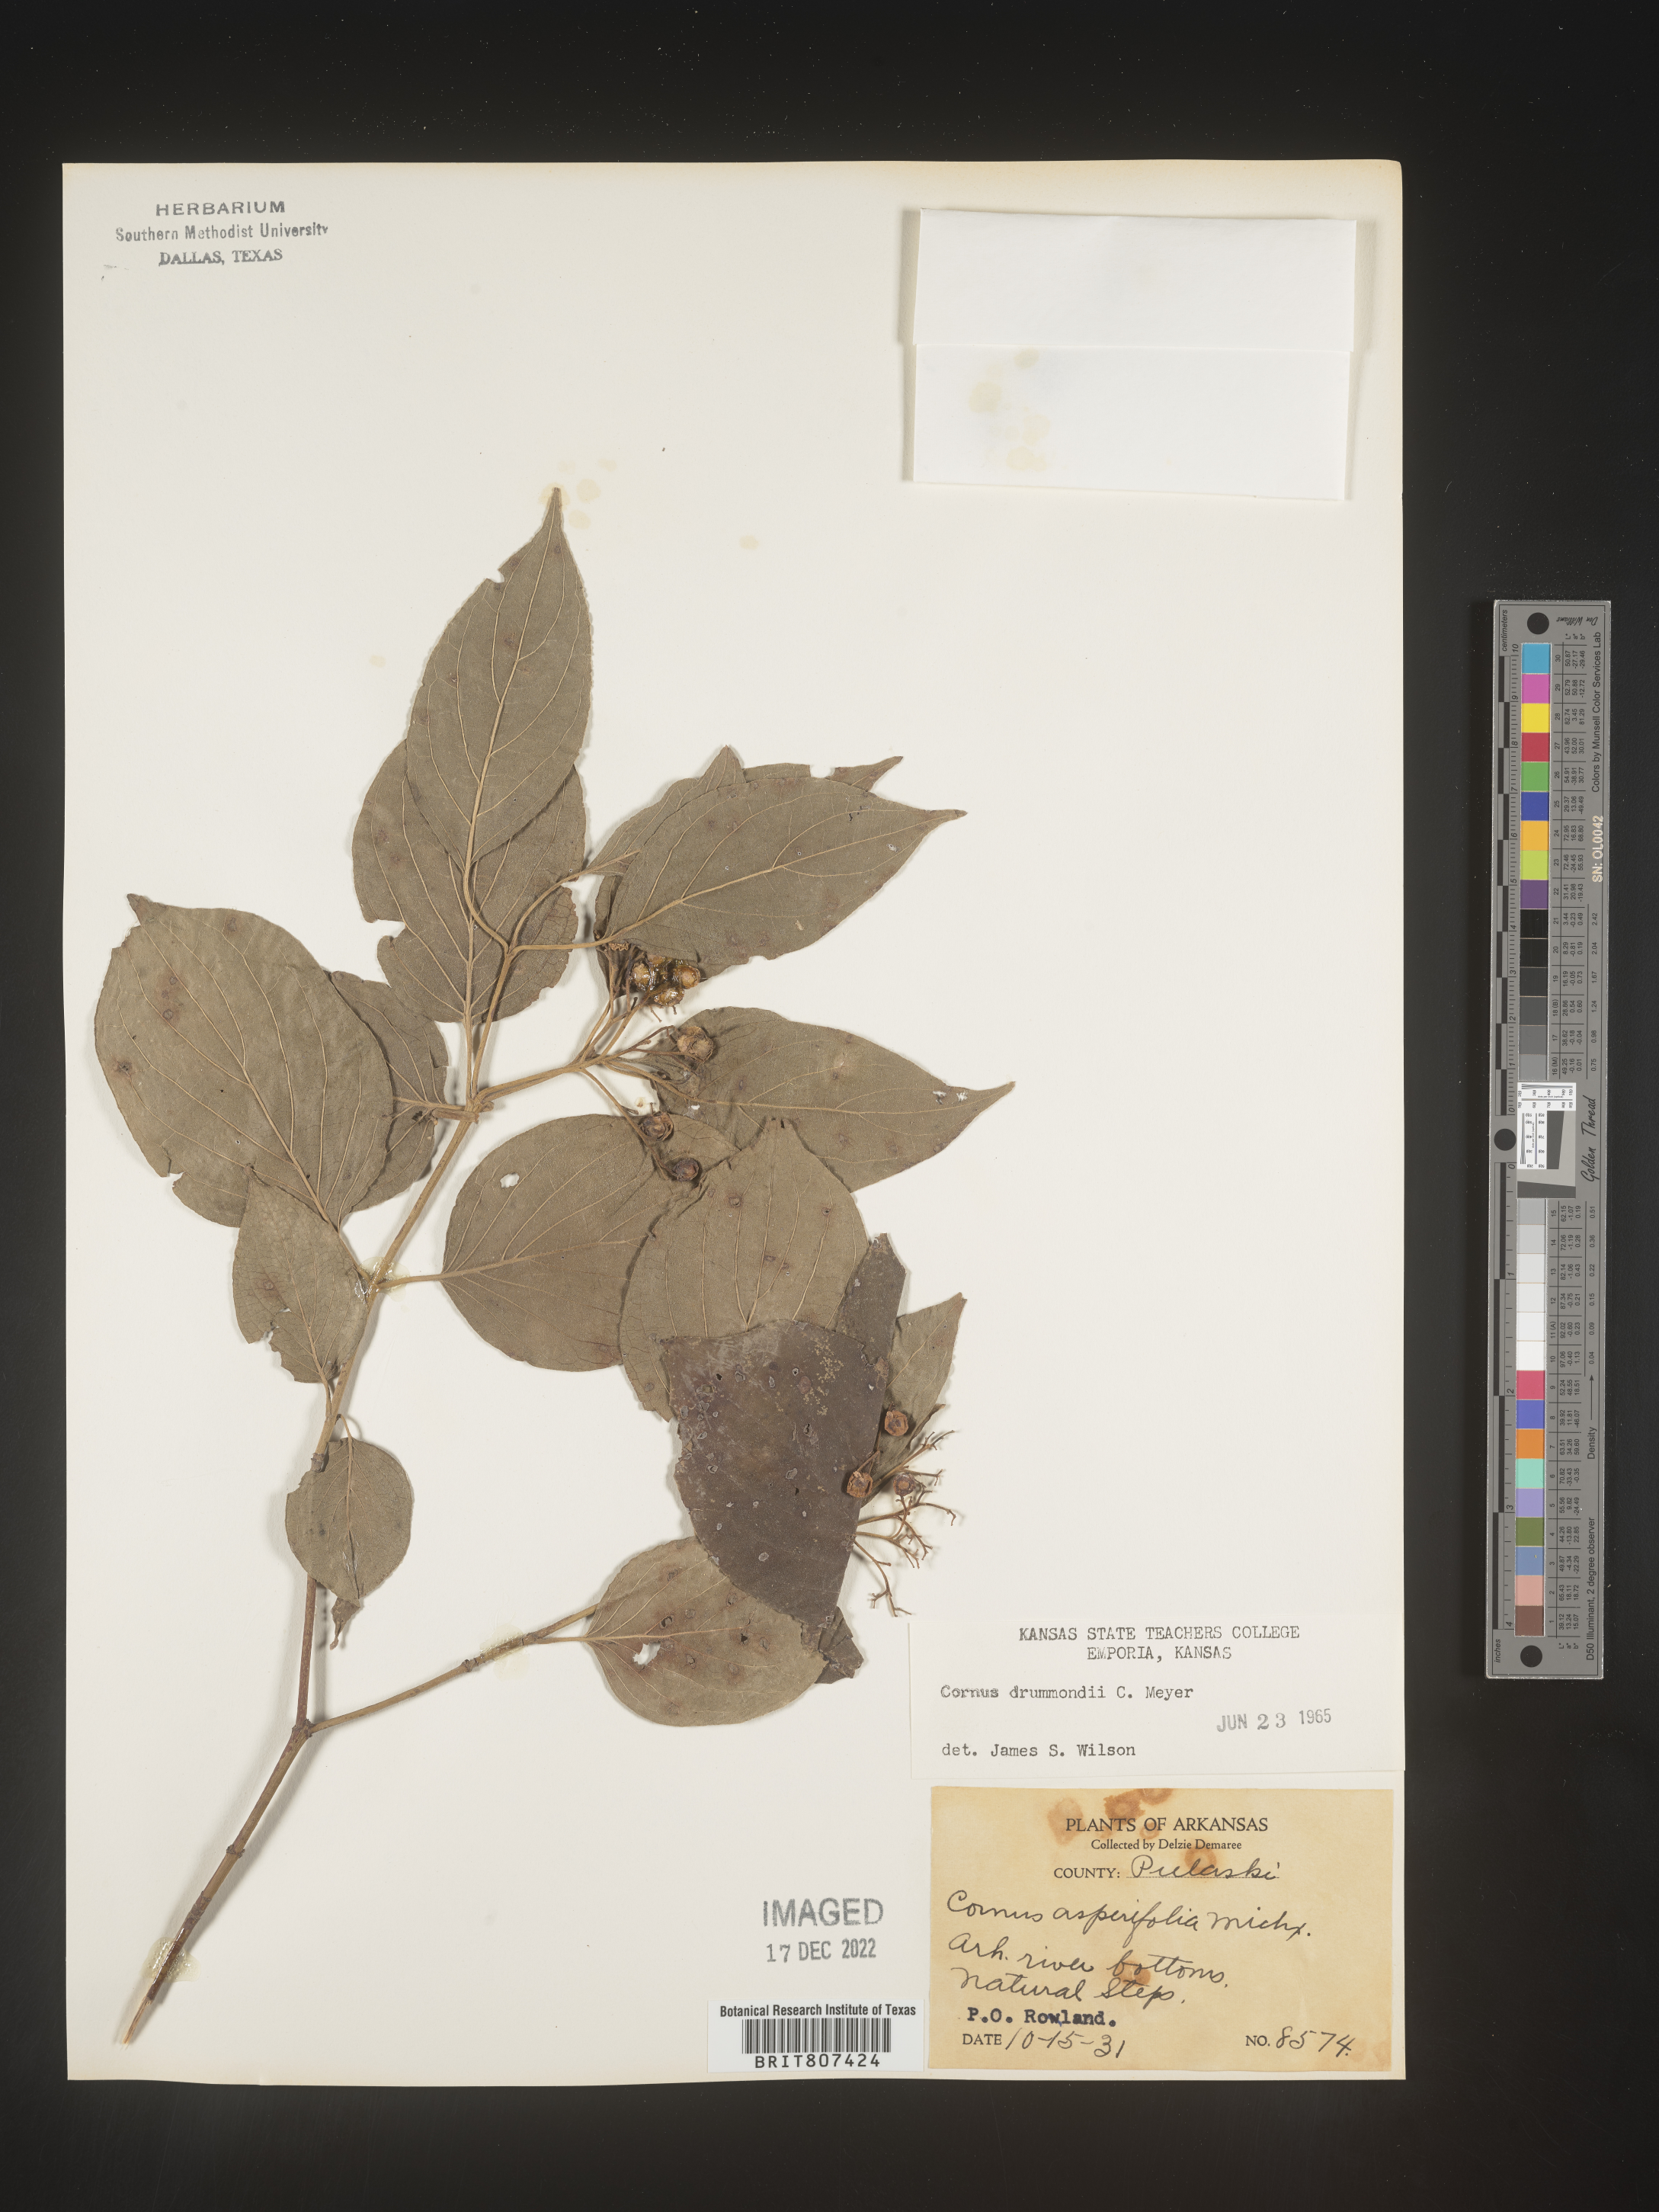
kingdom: Plantae
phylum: Tracheophyta
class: Magnoliopsida
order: Cornales
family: Cornaceae
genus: Cornus
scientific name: Cornus drummondii
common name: Rough-leaf dogwood
